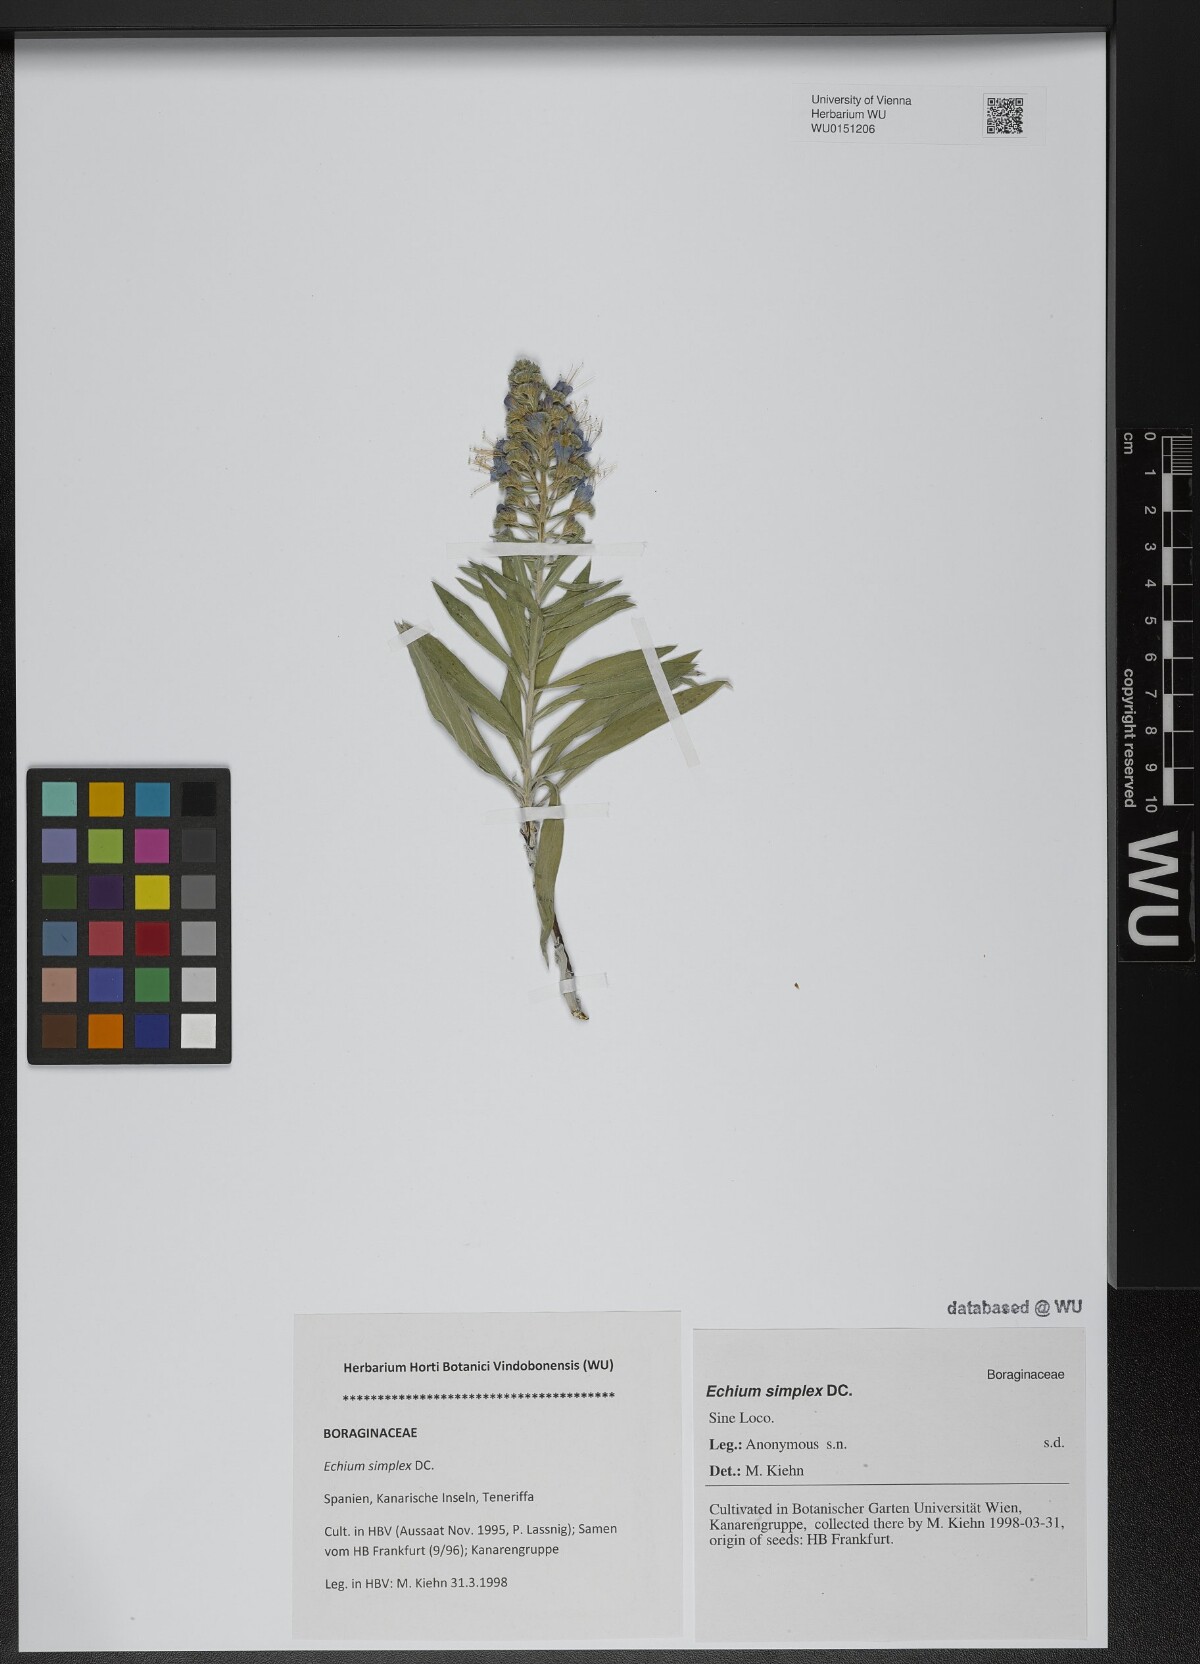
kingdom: Plantae
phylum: Tracheophyta
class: Magnoliopsida
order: Boraginales
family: Boraginaceae
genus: Echium
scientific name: Echium simplex
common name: Pride-of-tenerife
